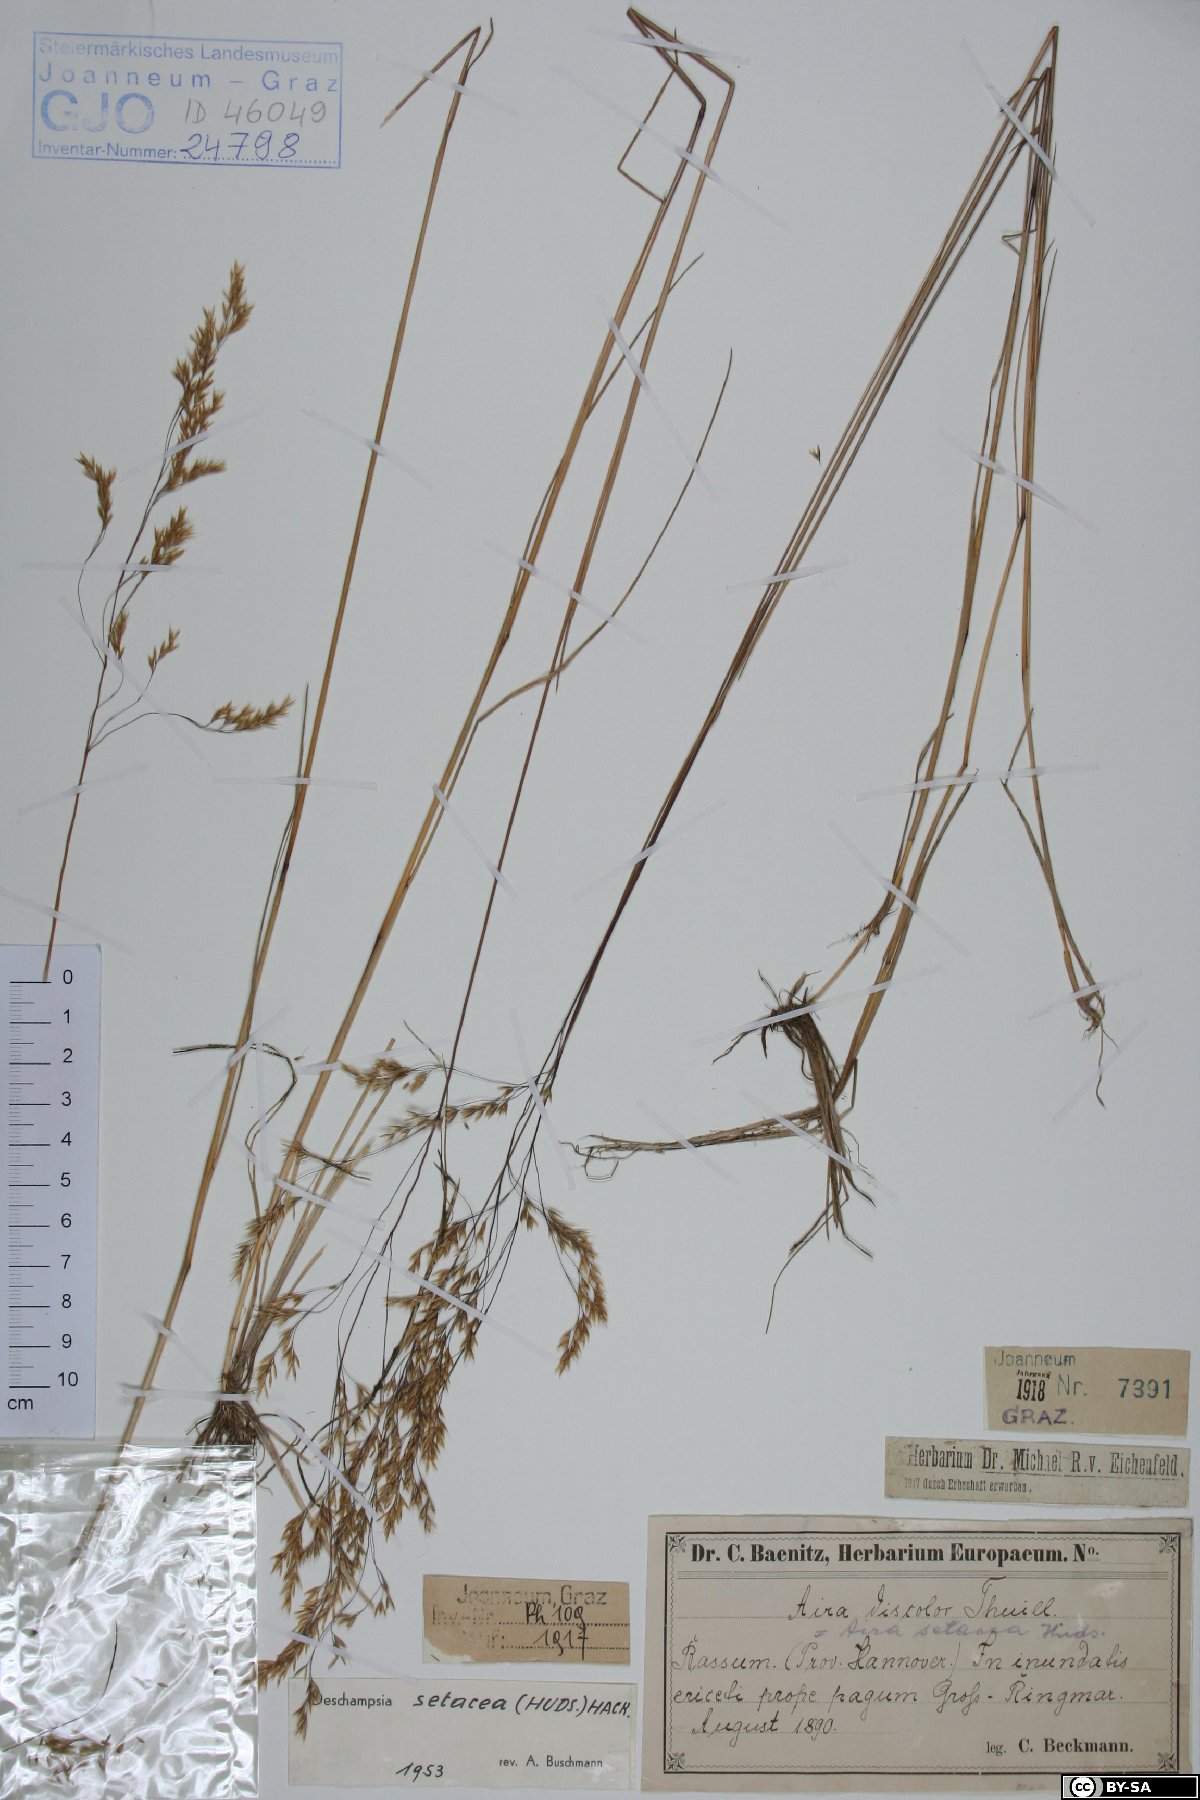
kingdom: Plantae
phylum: Tracheophyta
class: Liliopsida
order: Poales
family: Poaceae
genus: Deschampsia
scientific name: Deschampsia setacea
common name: Bog hair-grass
